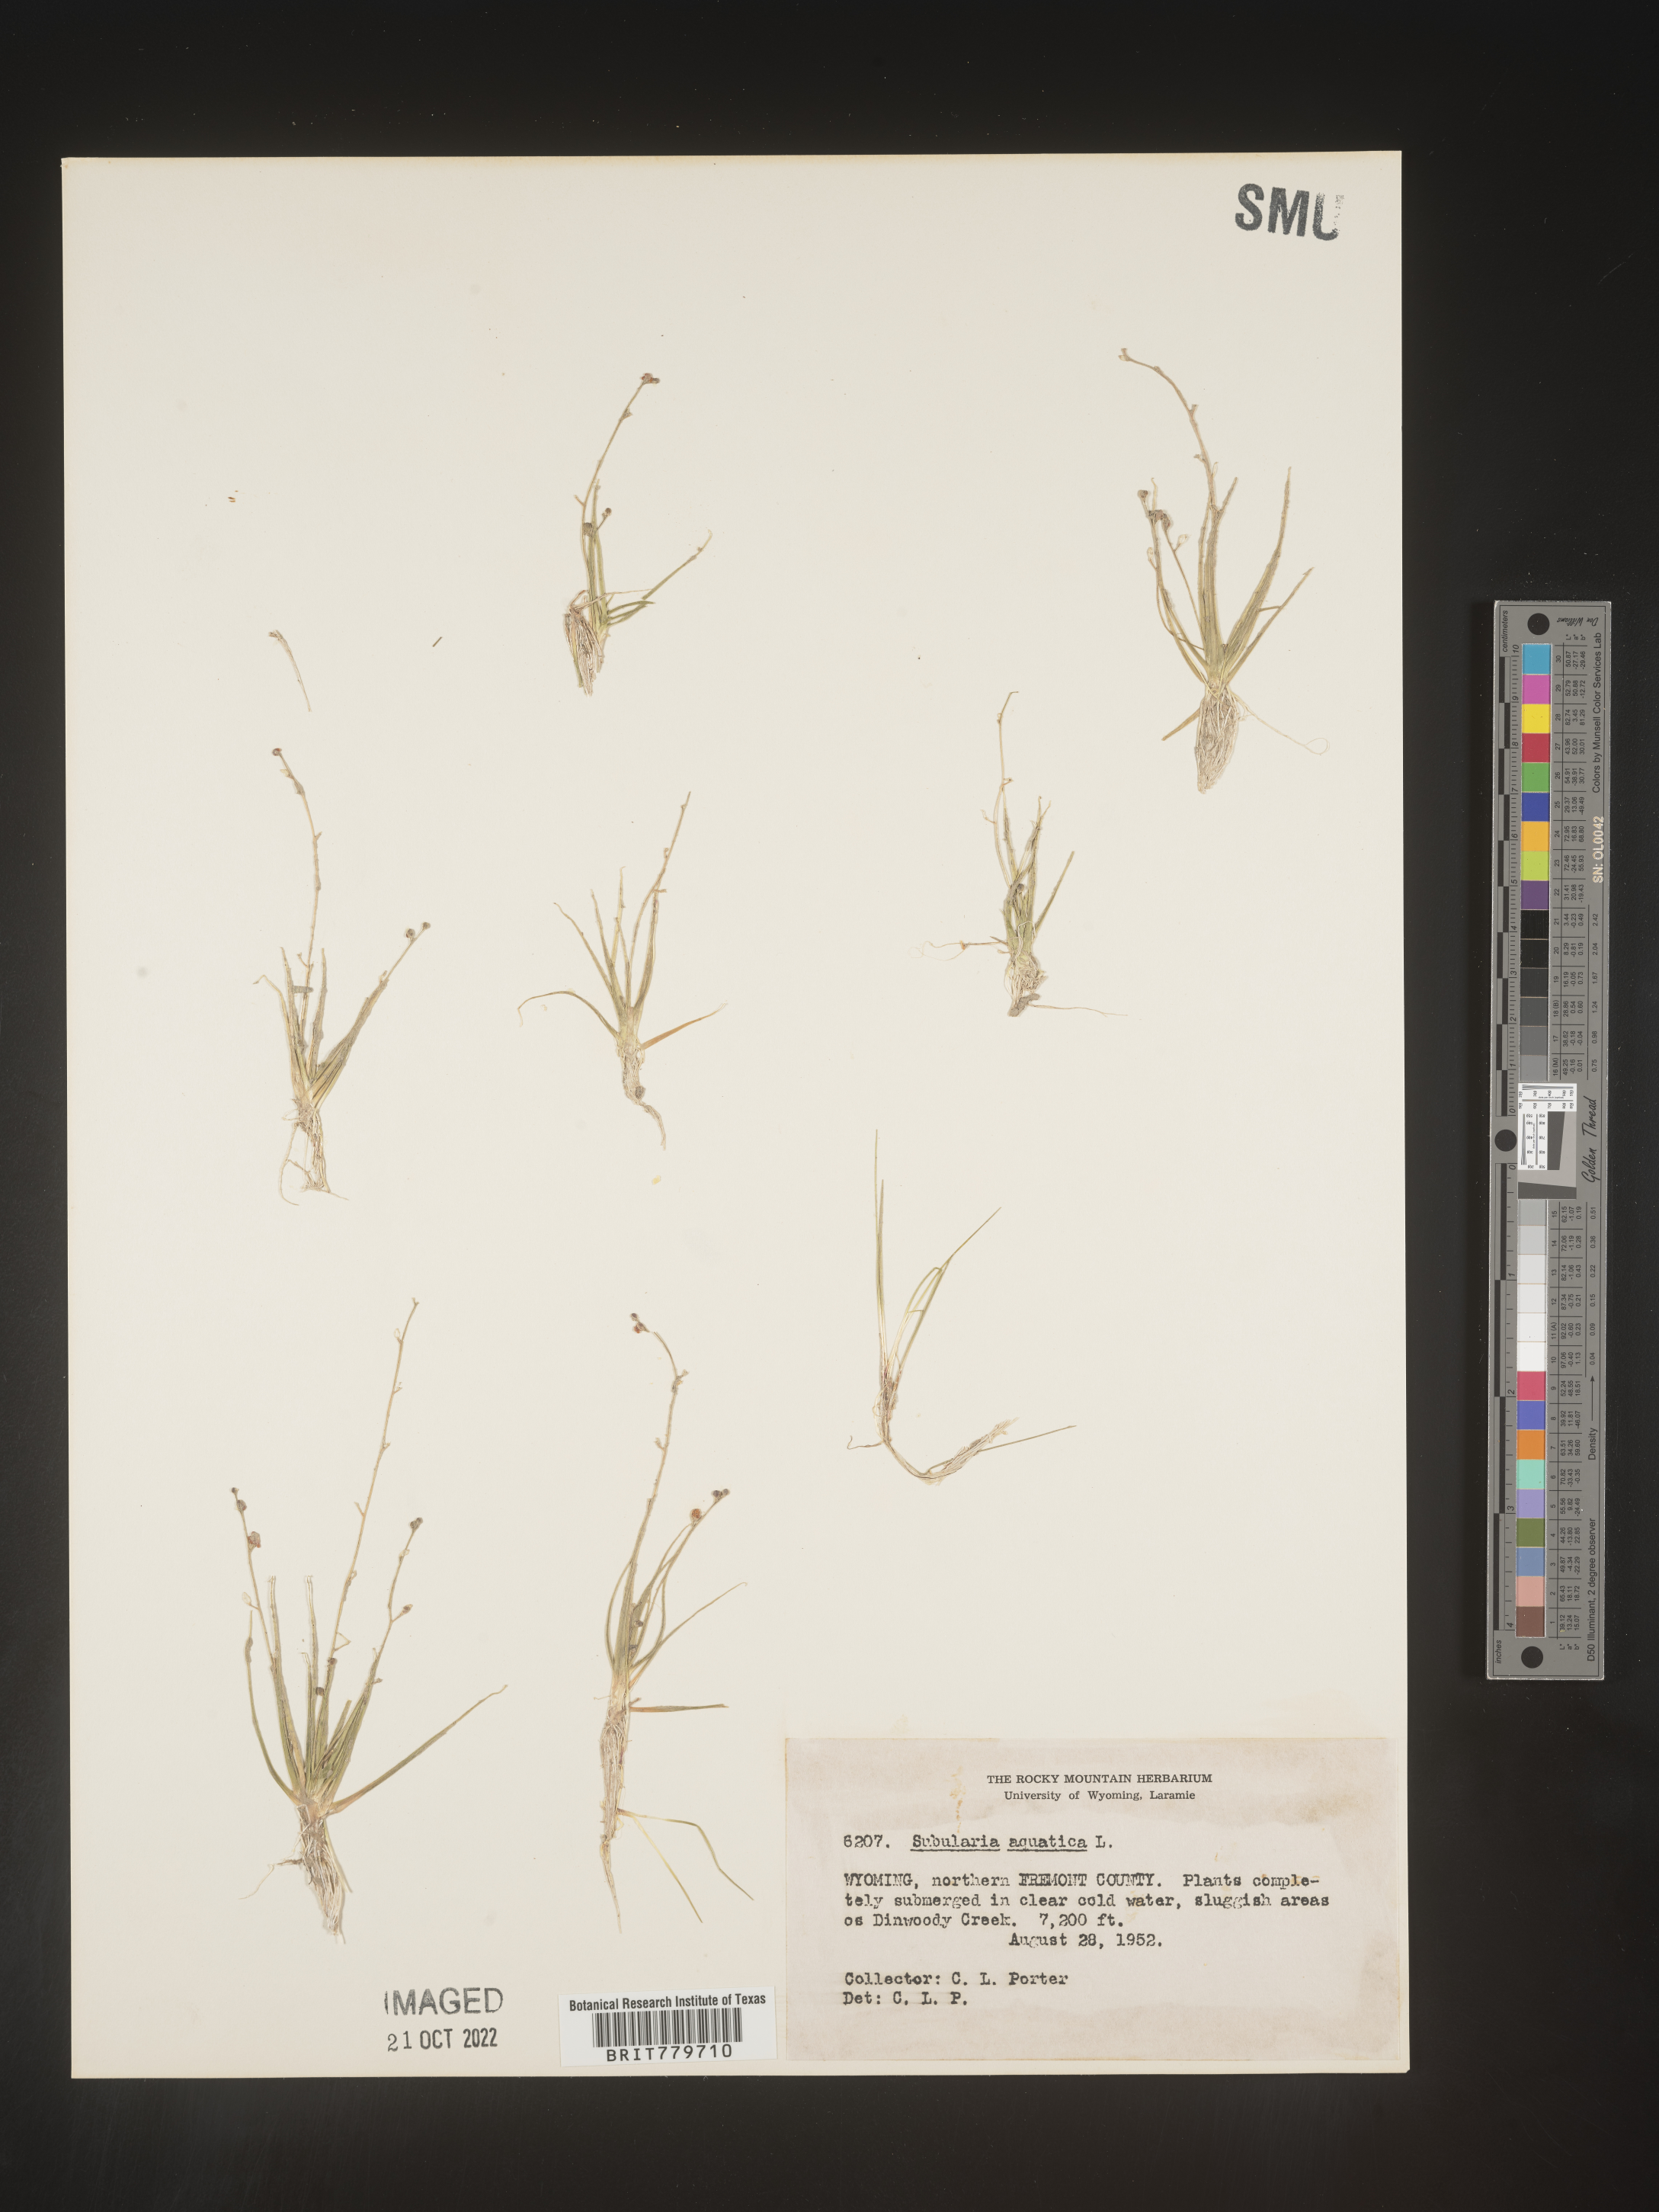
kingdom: Plantae
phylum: Tracheophyta
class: Magnoliopsida
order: Brassicales
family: Brassicaceae
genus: Subularia
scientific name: Subularia
